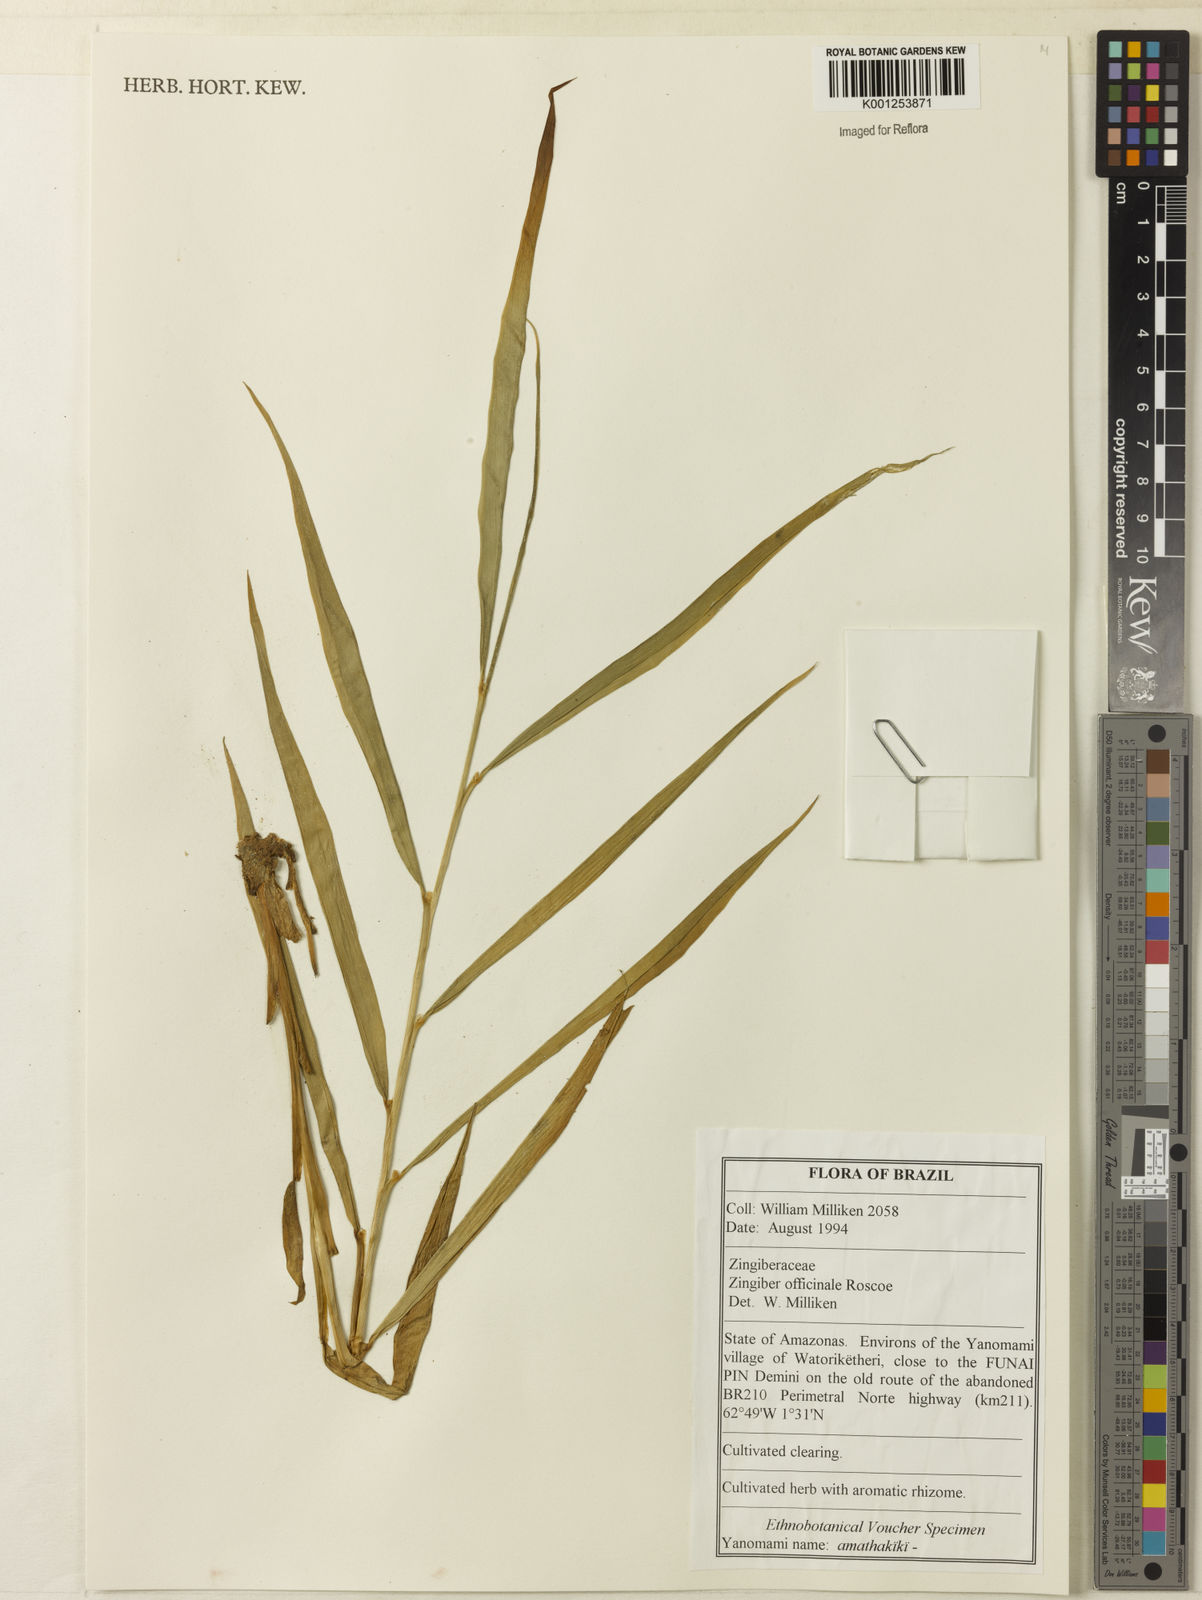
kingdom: Plantae
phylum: Tracheophyta
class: Liliopsida
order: Zingiberales
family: Zingiberaceae
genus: Zingiber
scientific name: Zingiber officinale
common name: Ginger
